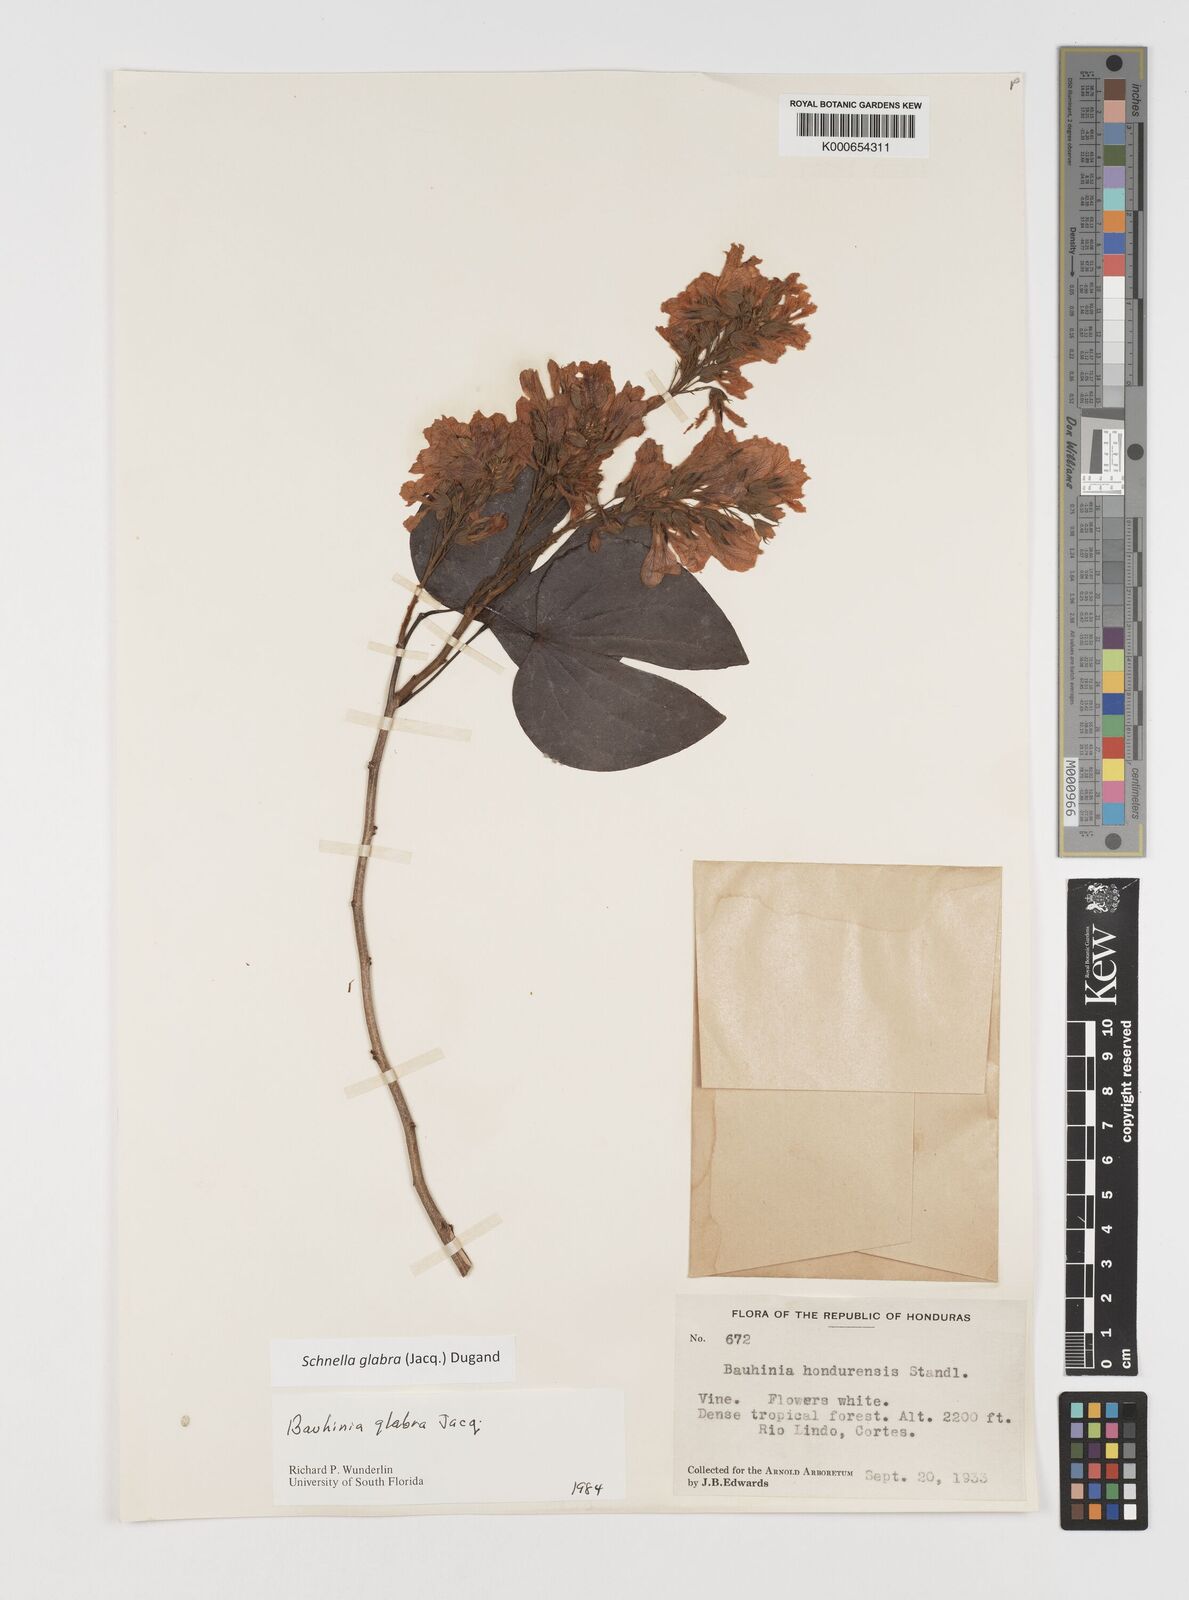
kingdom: Plantae
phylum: Tracheophyta
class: Magnoliopsida
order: Fabales
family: Fabaceae
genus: Schnella
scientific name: Schnella glabra
